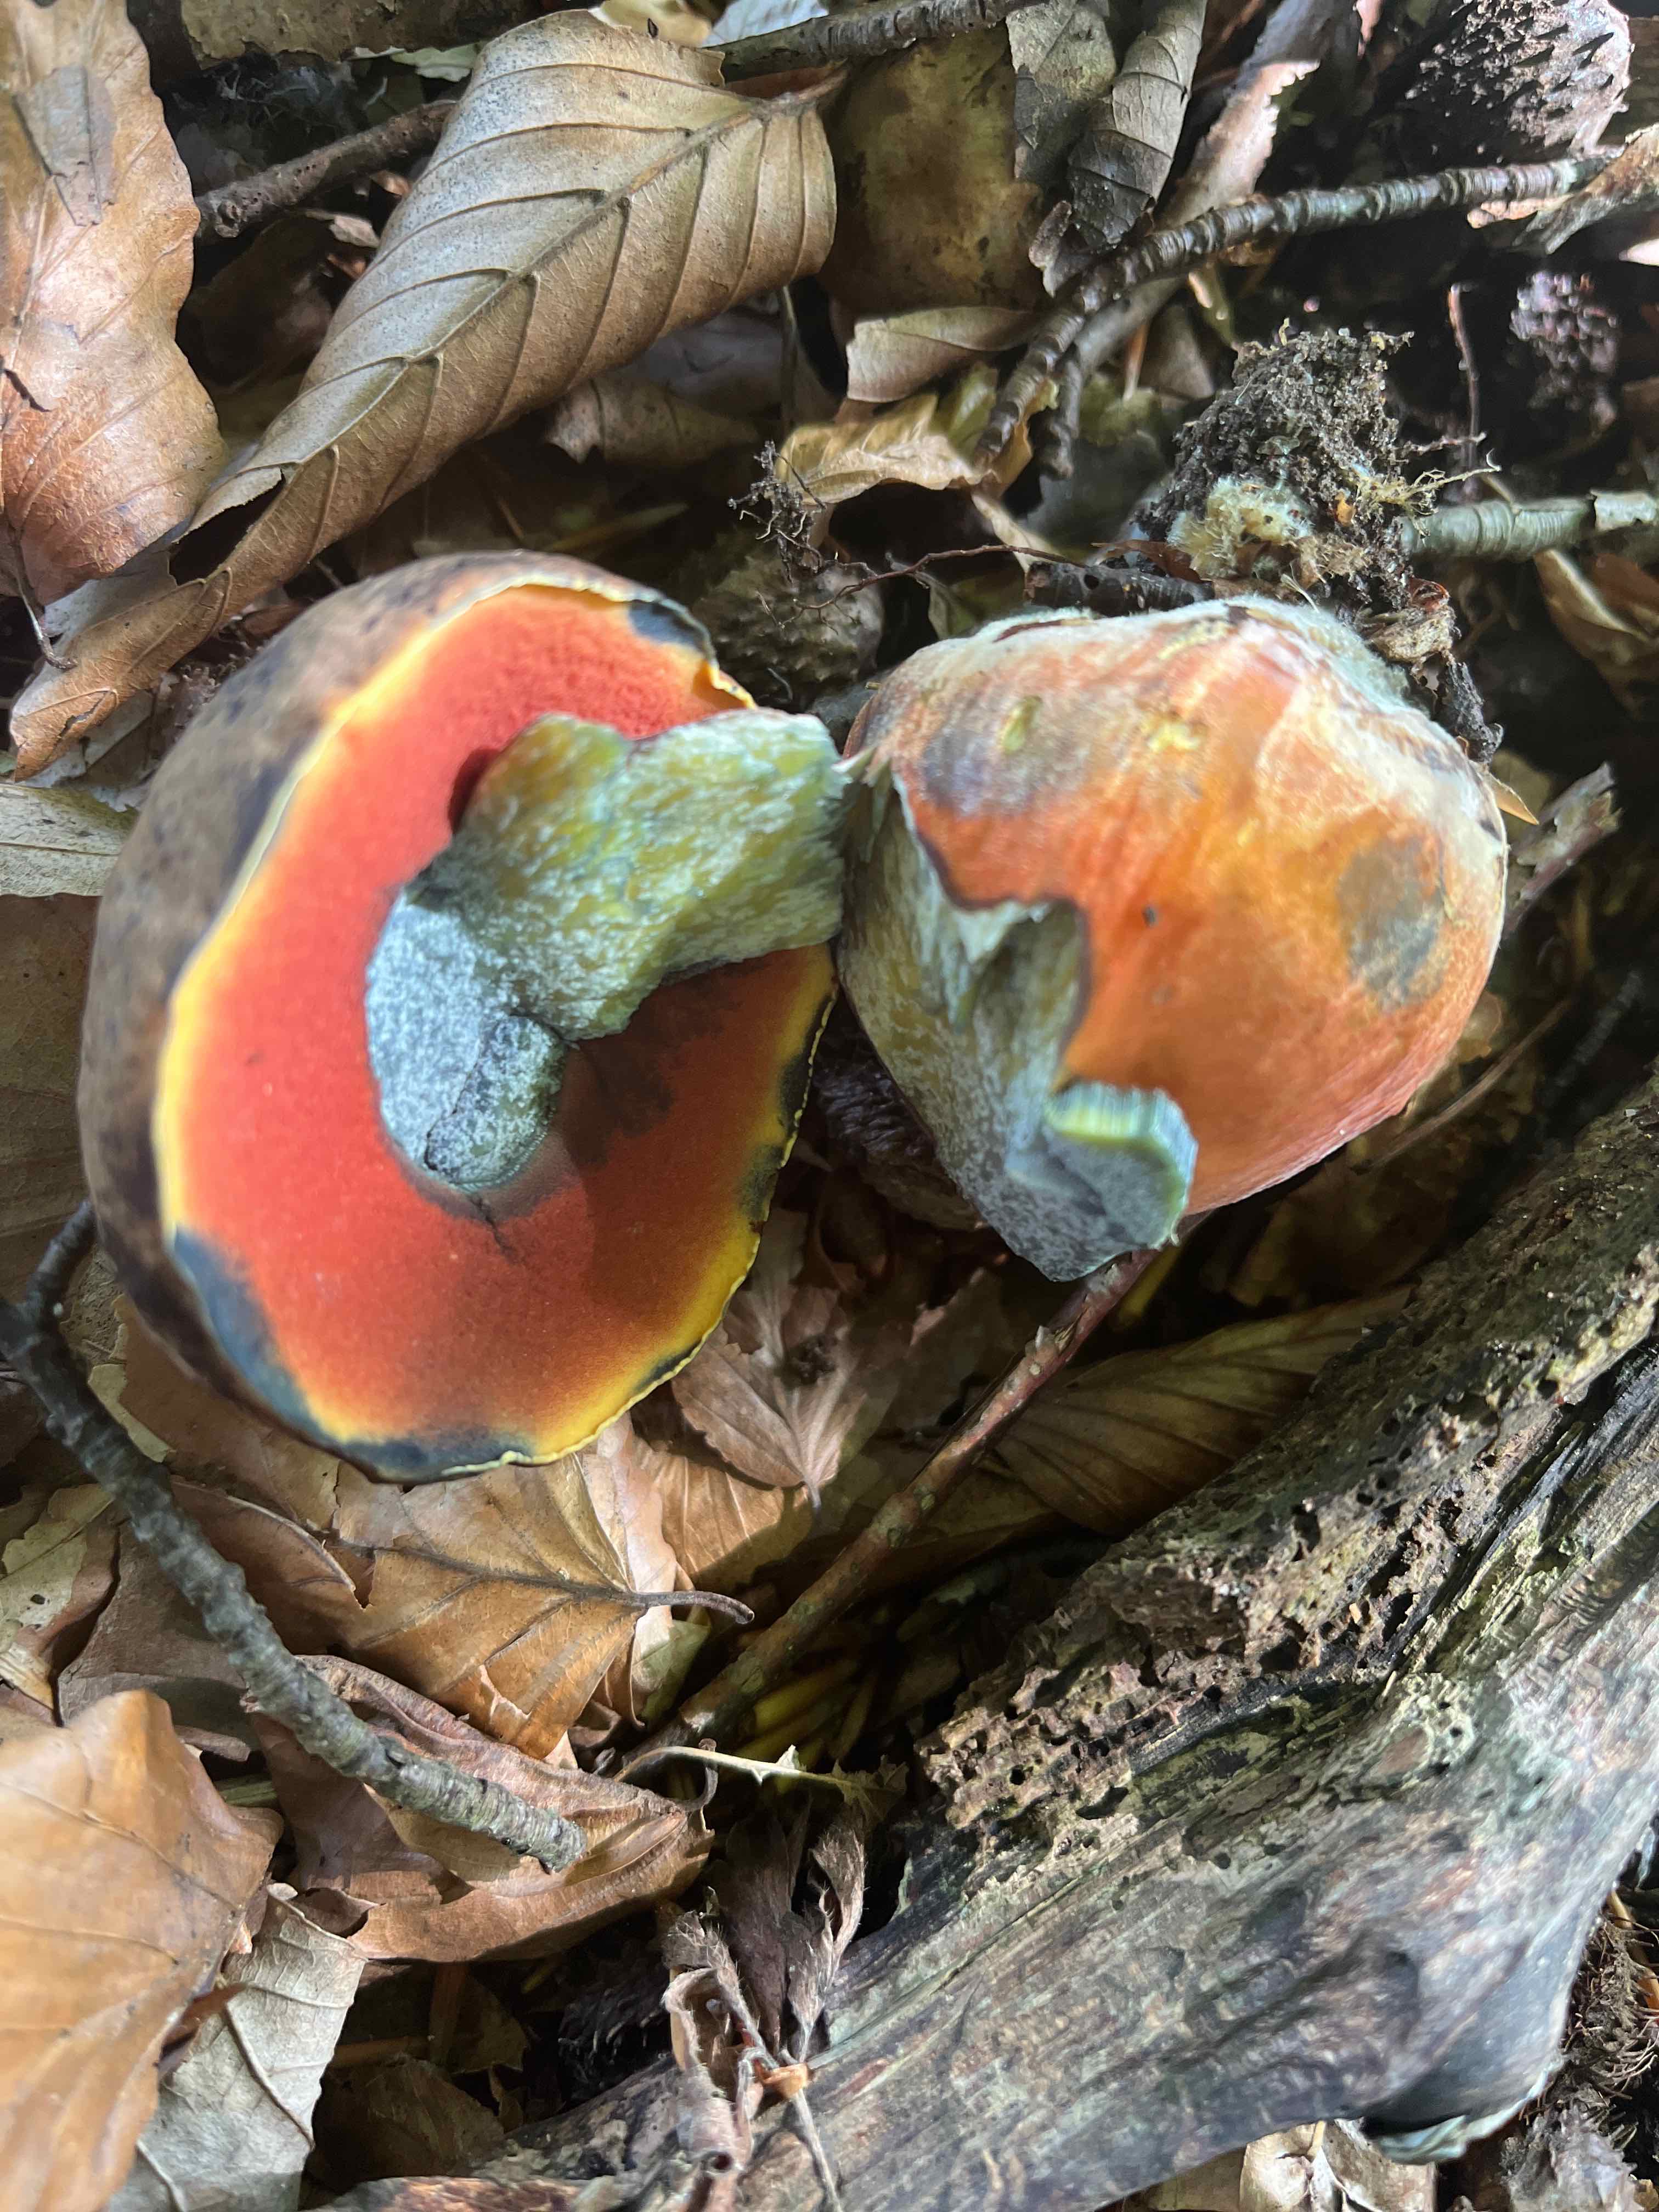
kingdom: Fungi
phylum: Basidiomycota
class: Agaricomycetes
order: Boletales
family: Boletaceae
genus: Neoboletus
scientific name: Neoboletus erythropus
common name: punktstokket indigorørhat
